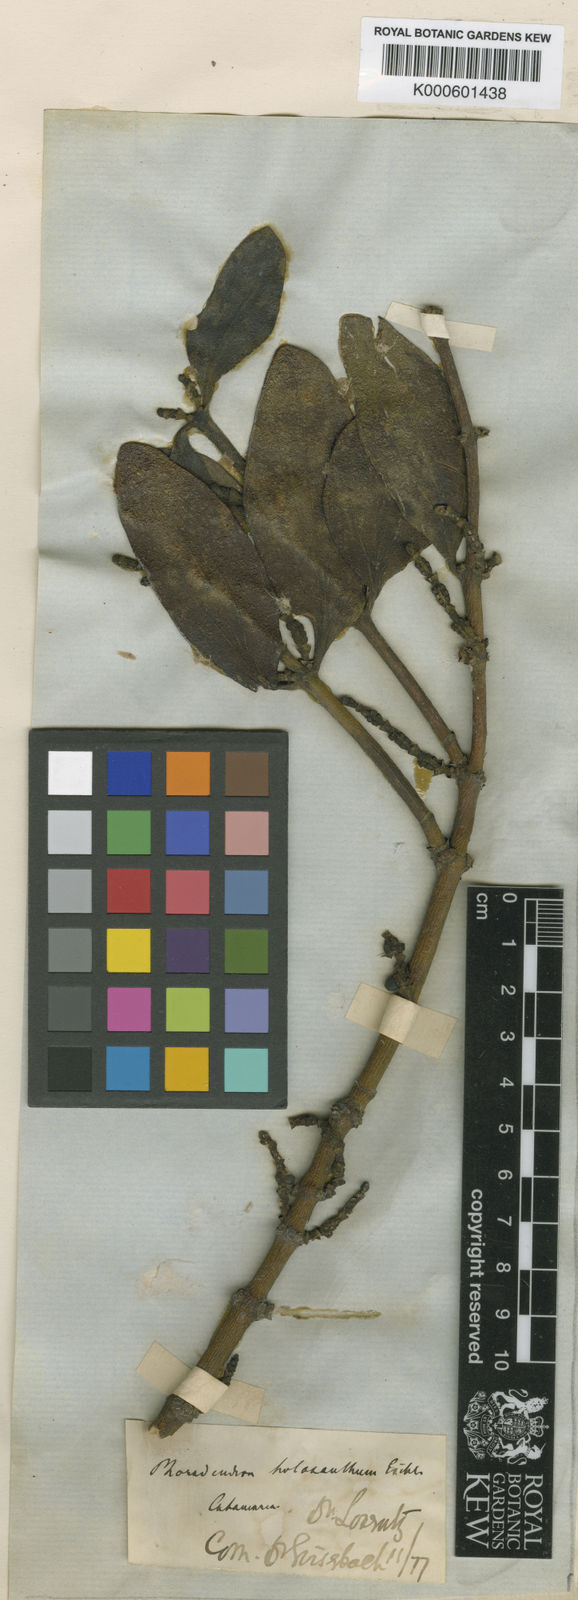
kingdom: Plantae
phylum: Tracheophyta
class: Magnoliopsida
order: Santalales
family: Viscaceae
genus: Phoradendron
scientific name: Phoradendron holoxanthum
